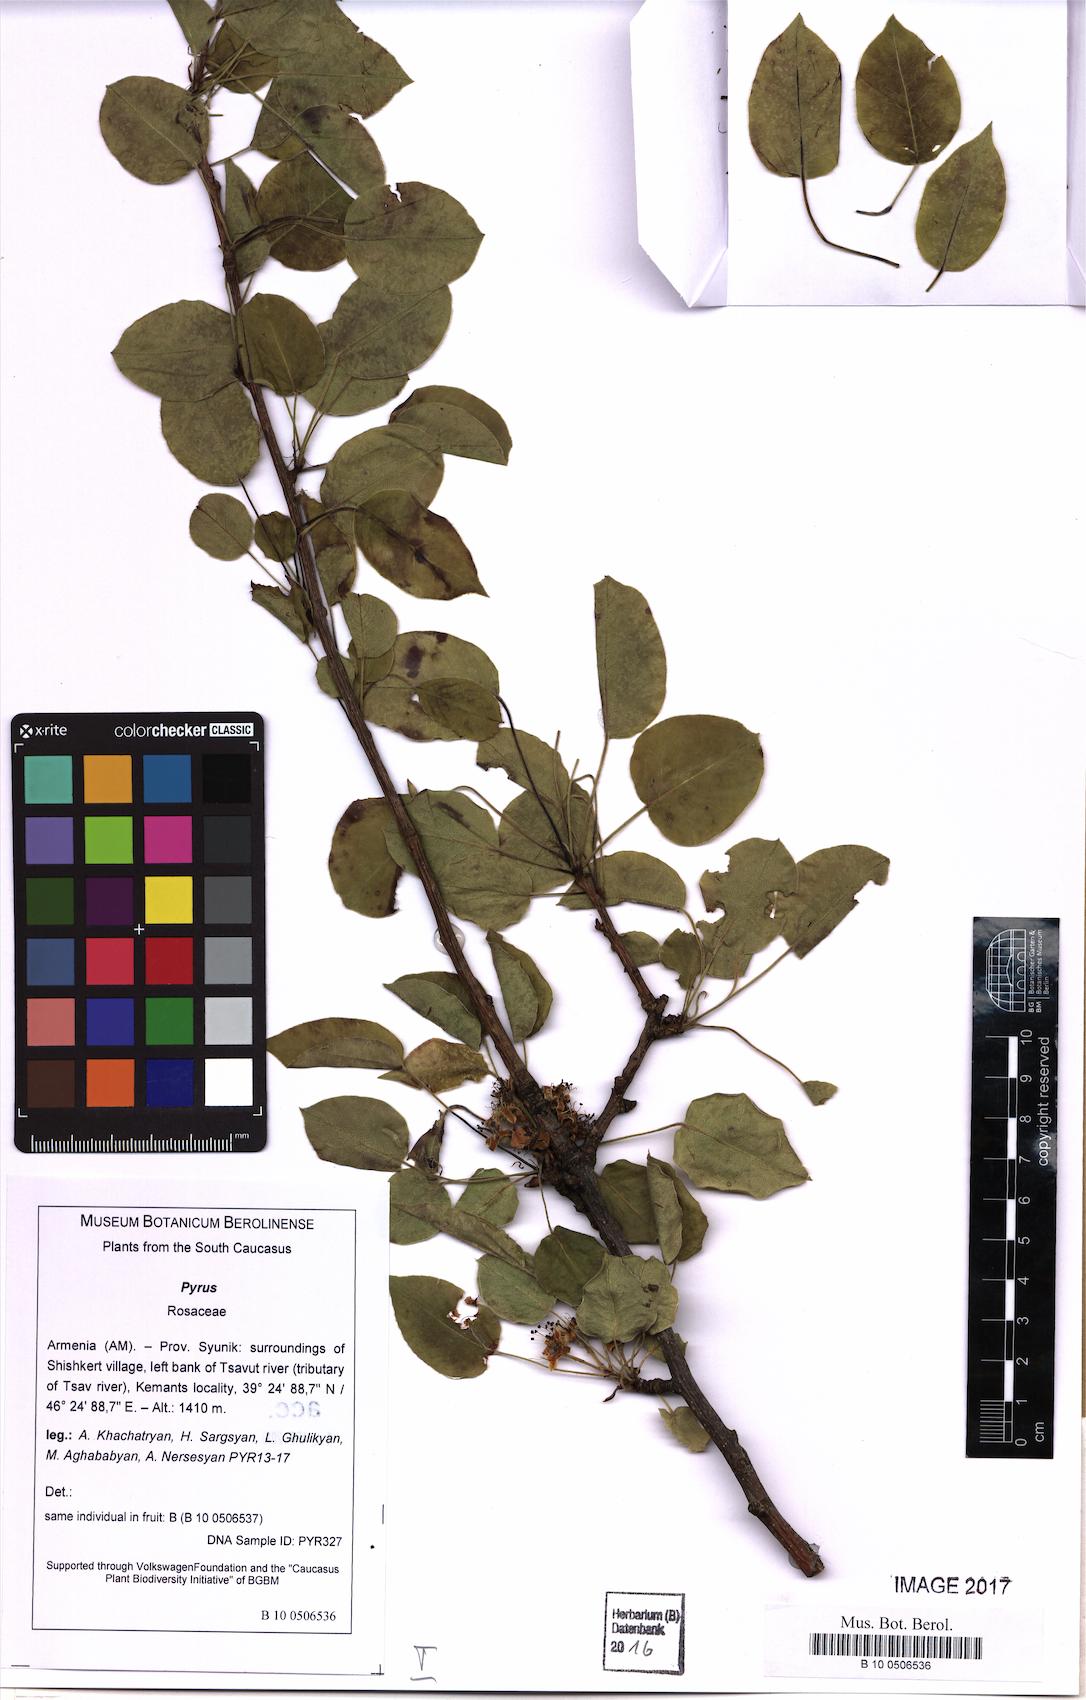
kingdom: Plantae
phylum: Tracheophyta
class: Magnoliopsida
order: Rosales
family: Rosaceae
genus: Pyrus
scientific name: Pyrus
